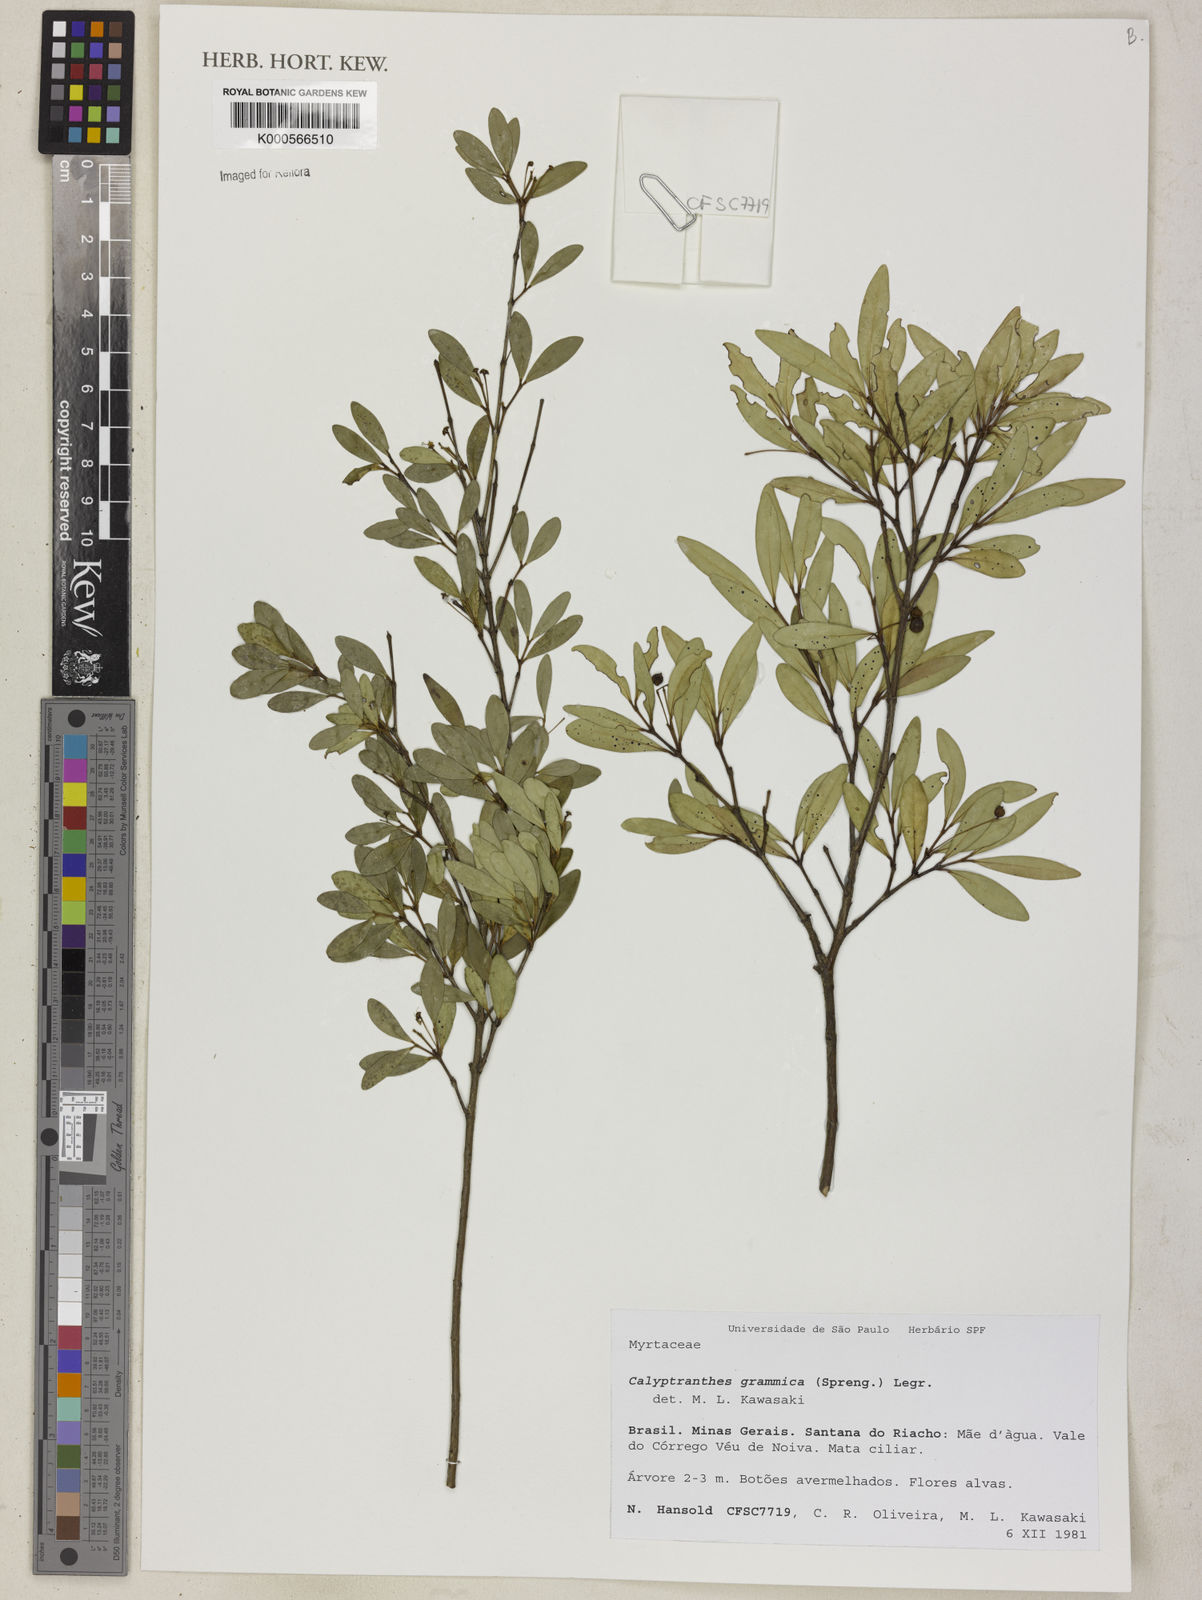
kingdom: Plantae
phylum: Tracheophyta
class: Magnoliopsida
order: Myrtales
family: Myrtaceae
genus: Myrcia
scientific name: Myrcia grammica
